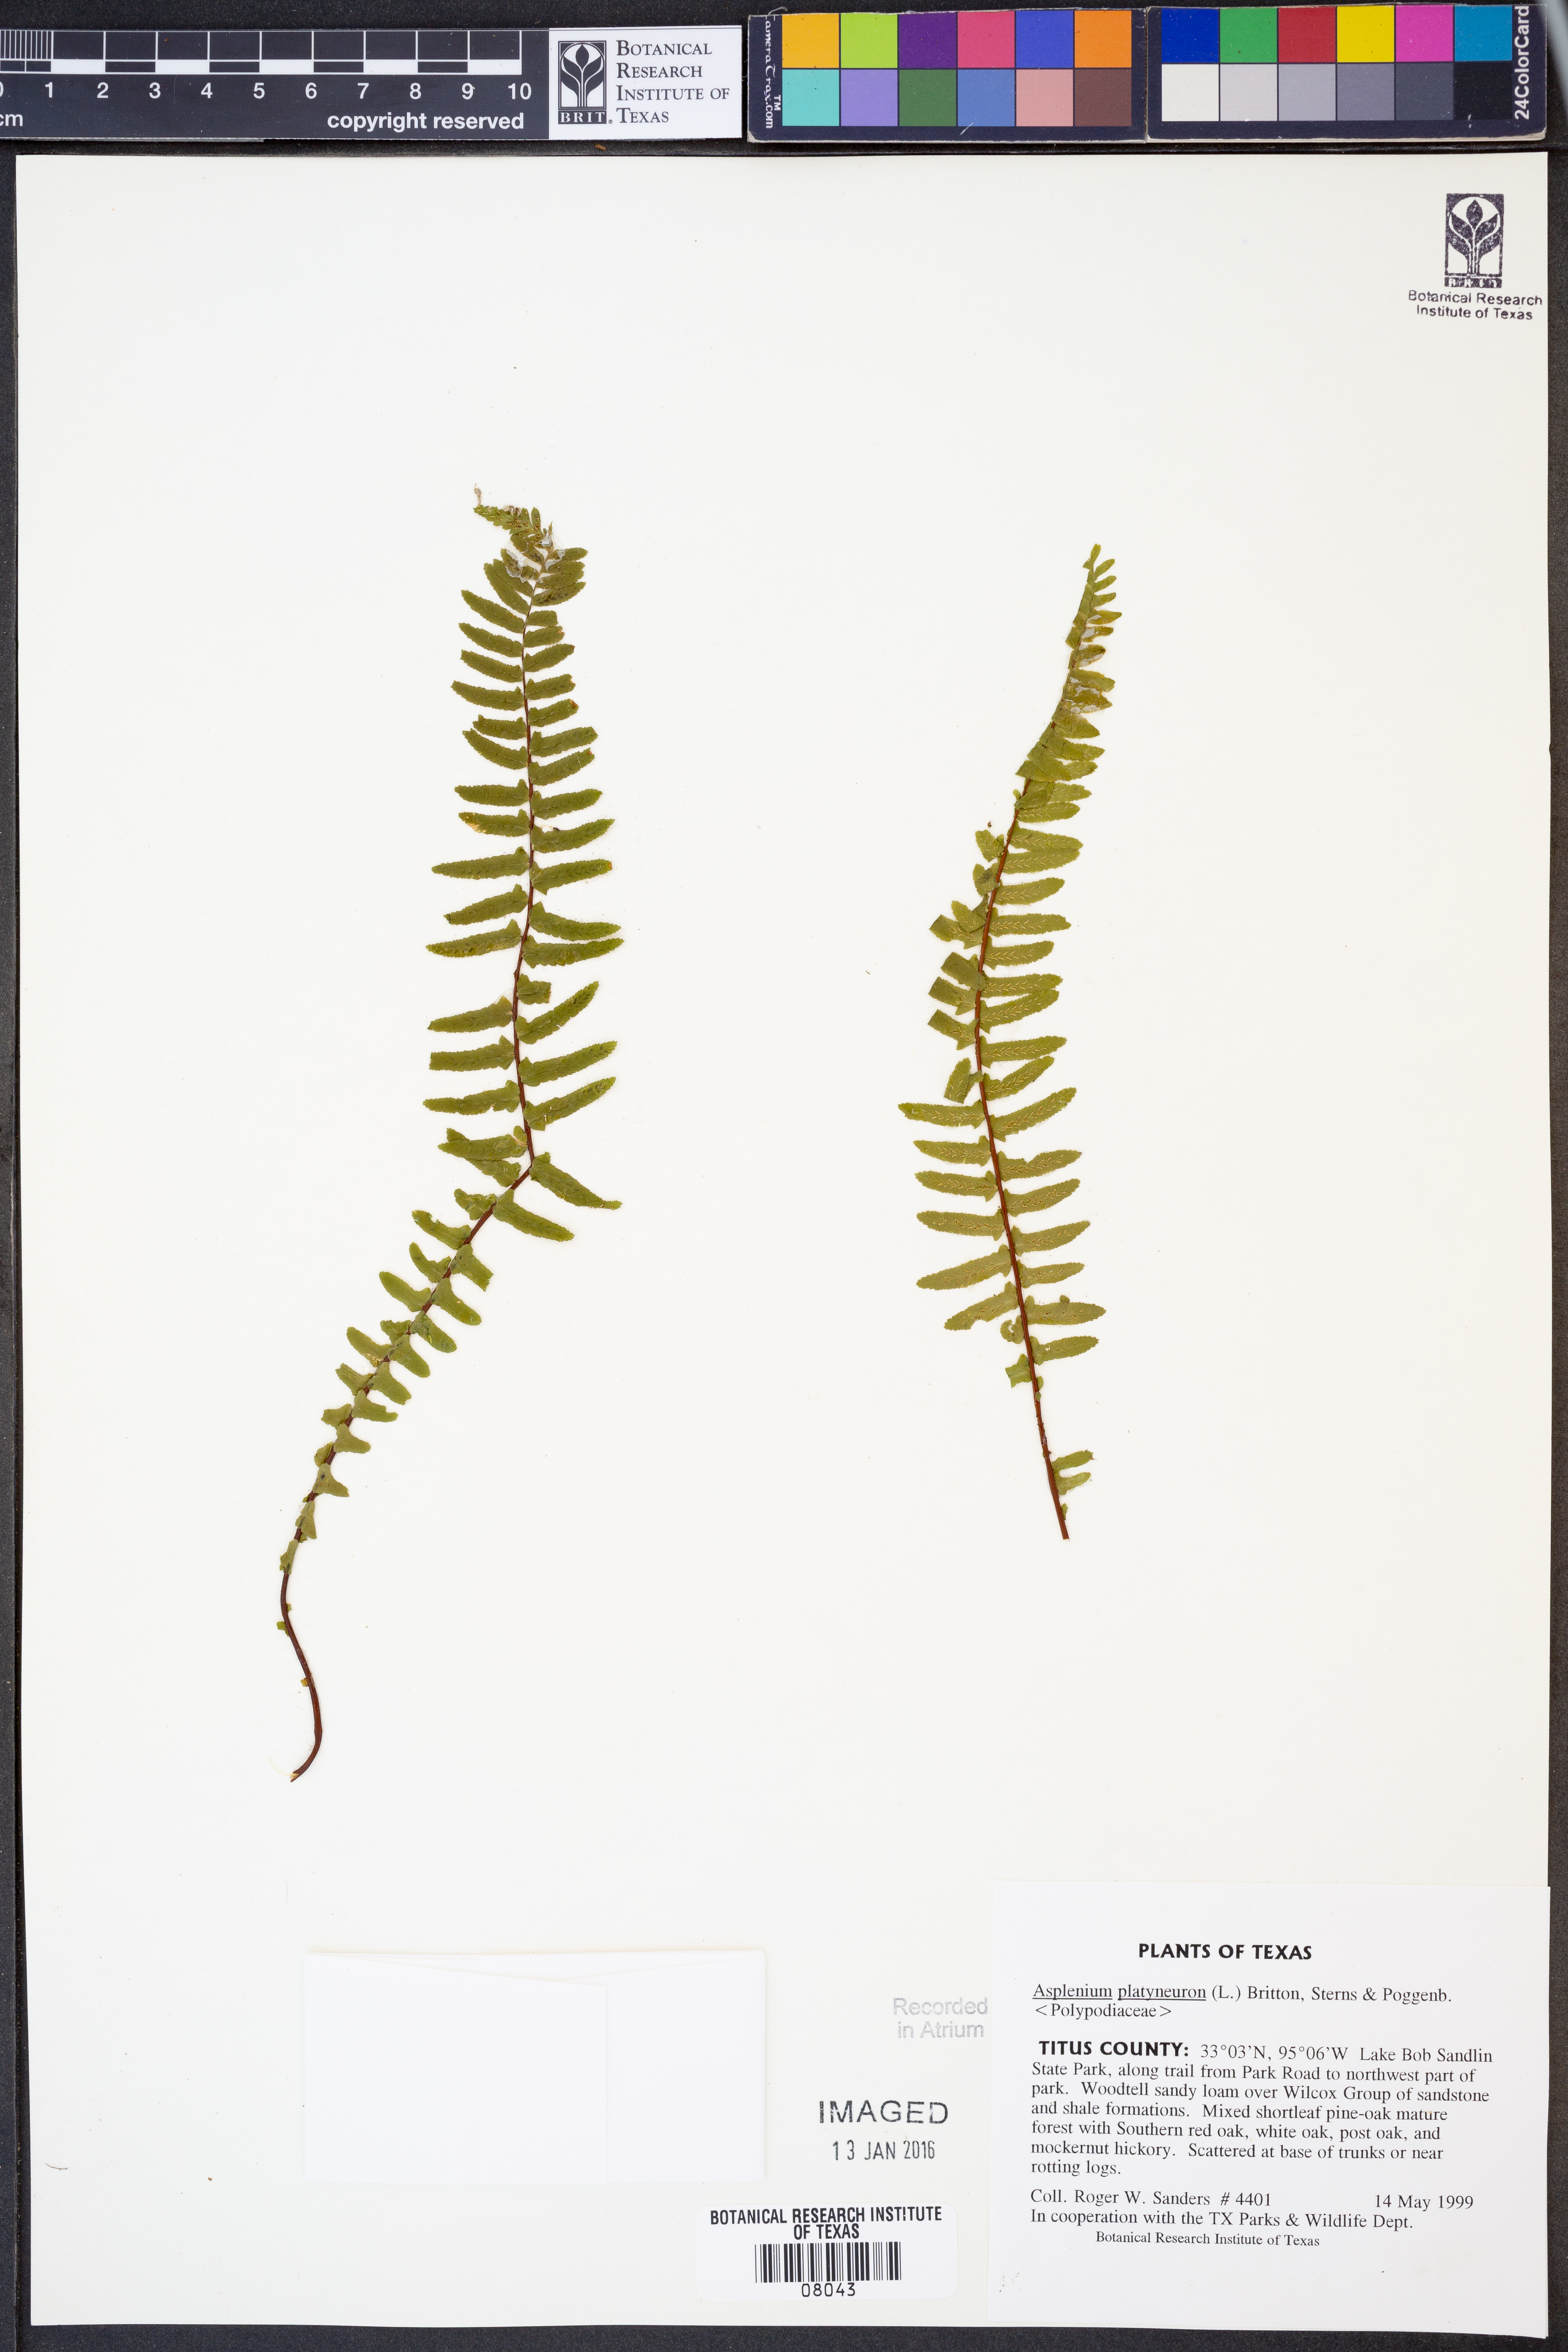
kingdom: Plantae
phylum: Tracheophyta
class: Polypodiopsida
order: Polypodiales
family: Aspleniaceae
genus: Asplenium
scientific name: Asplenium platyneuron
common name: Ebony spleenwort
